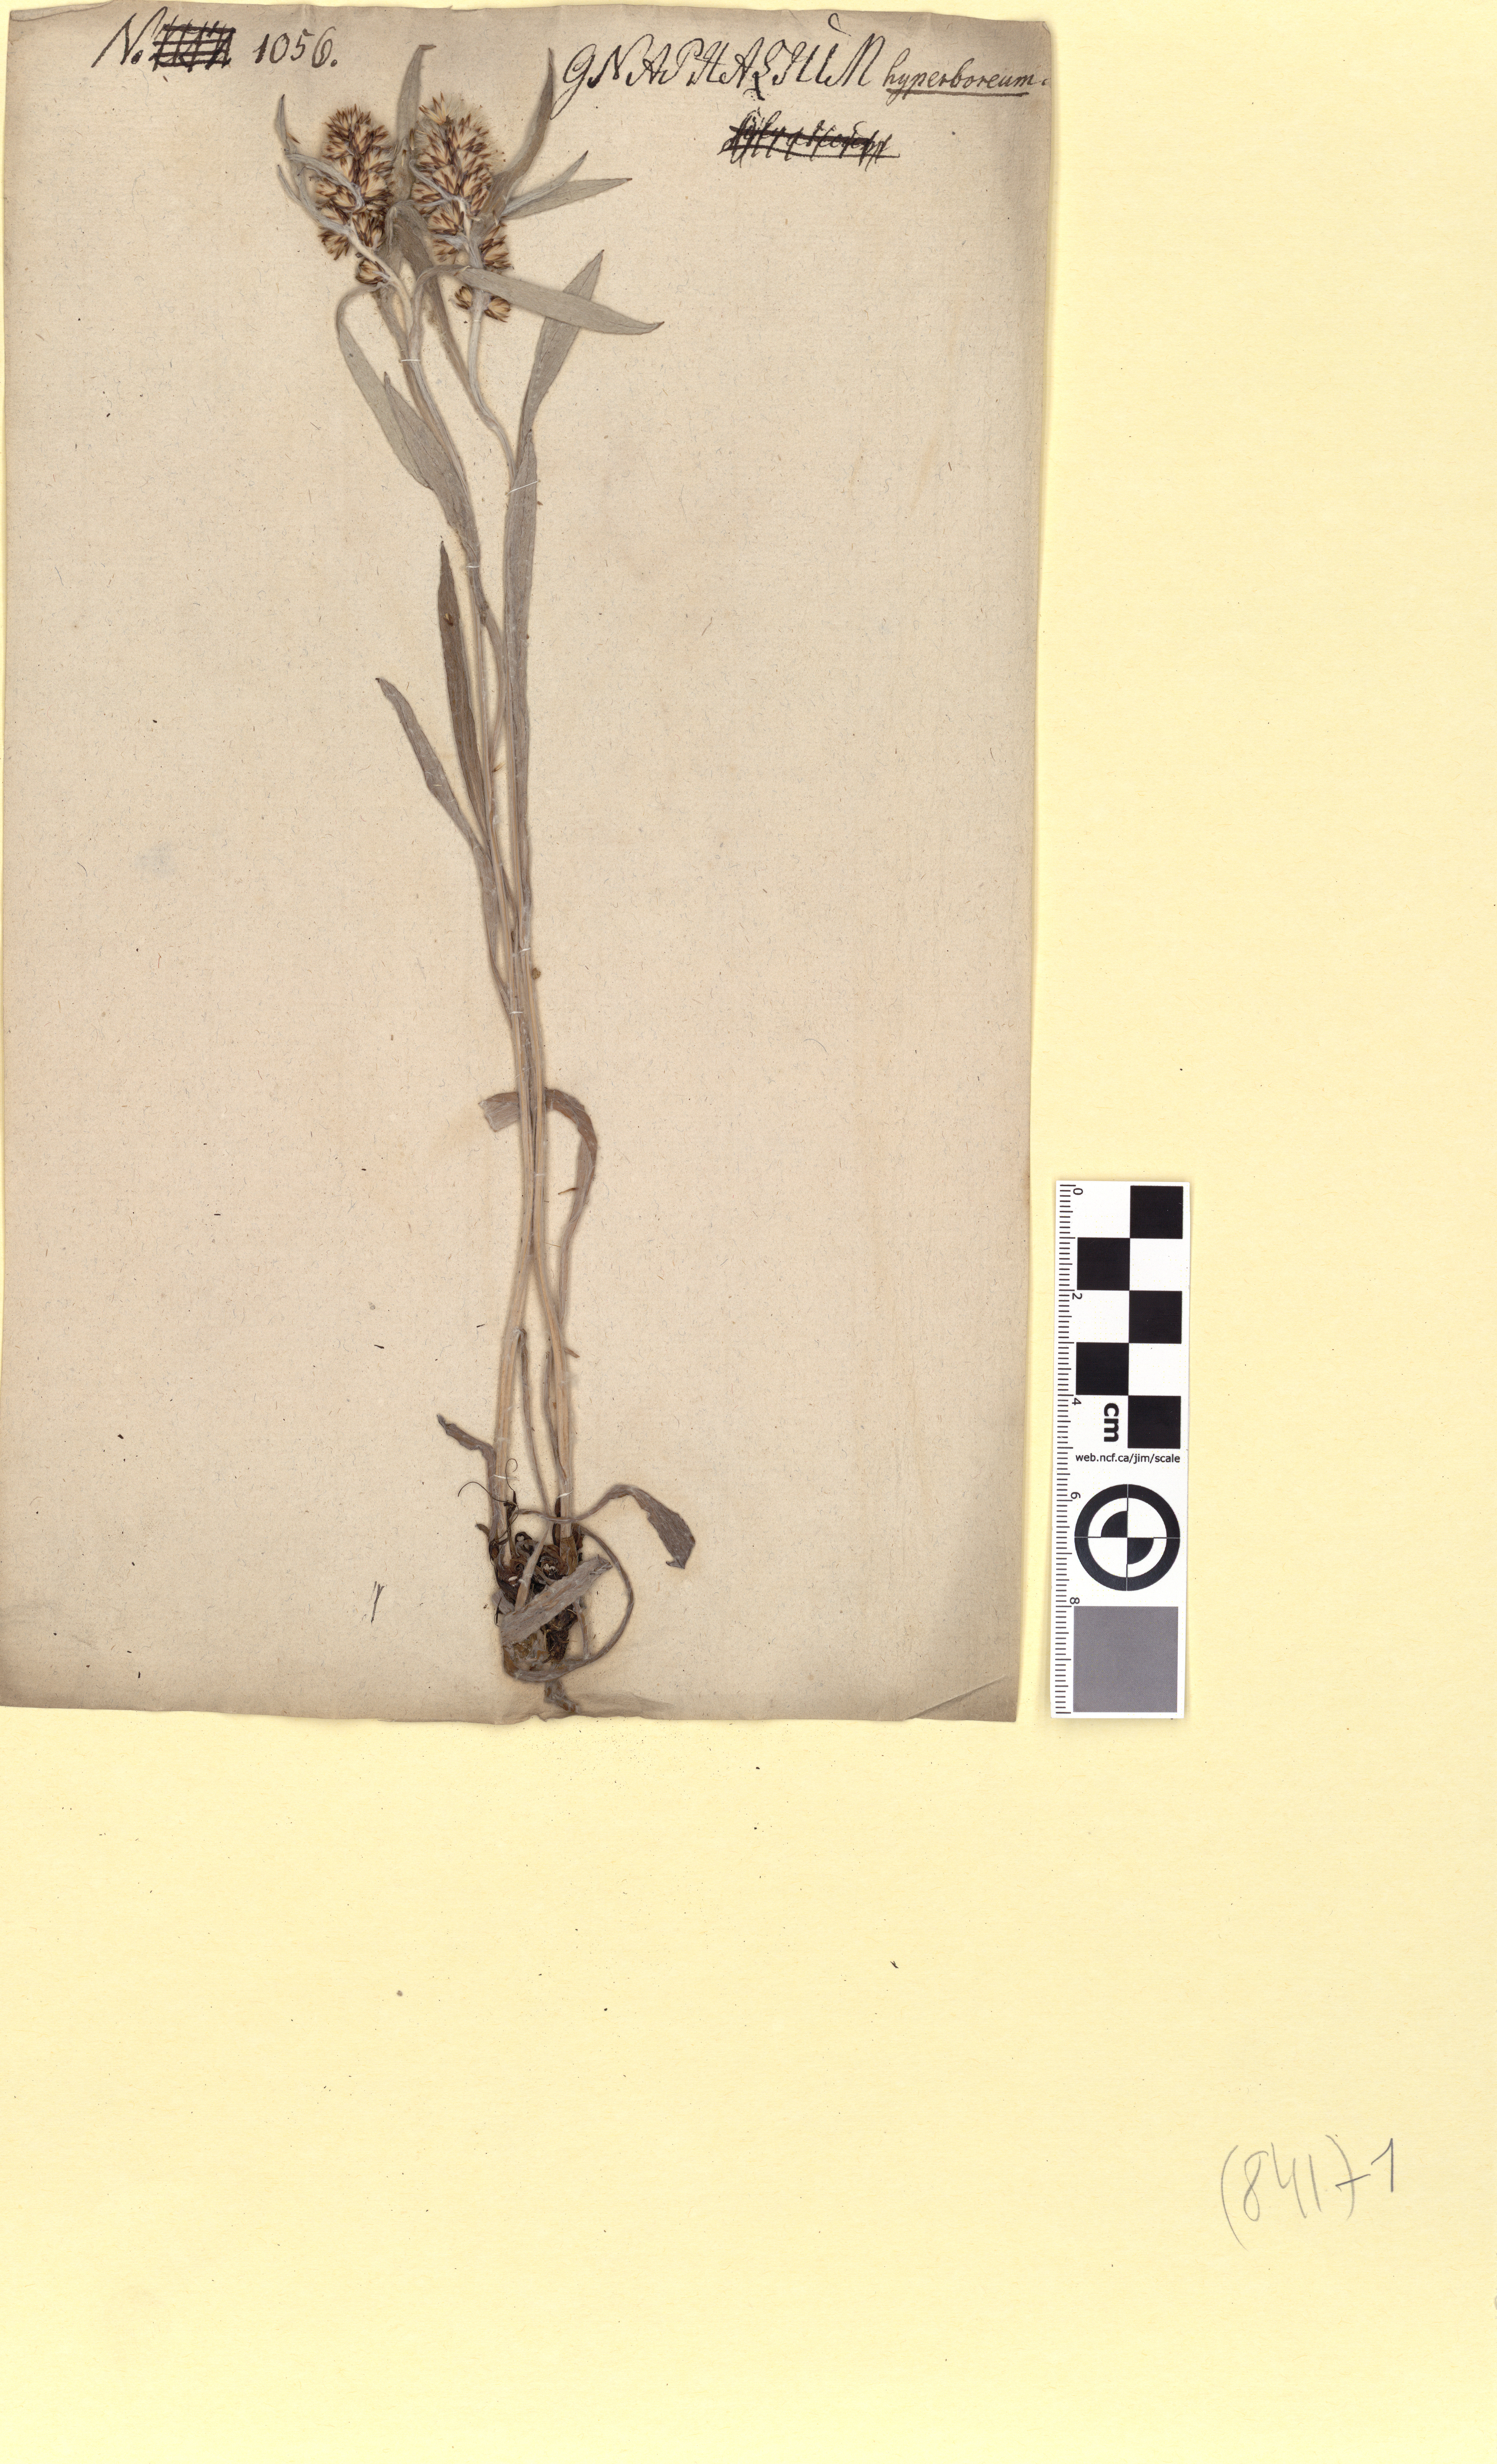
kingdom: Plantae
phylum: Tracheophyta
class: Magnoliopsida
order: Asterales
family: Asteraceae
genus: Omalotheca
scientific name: Omalotheca norvegica
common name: Norwegian arctic-cudweed
